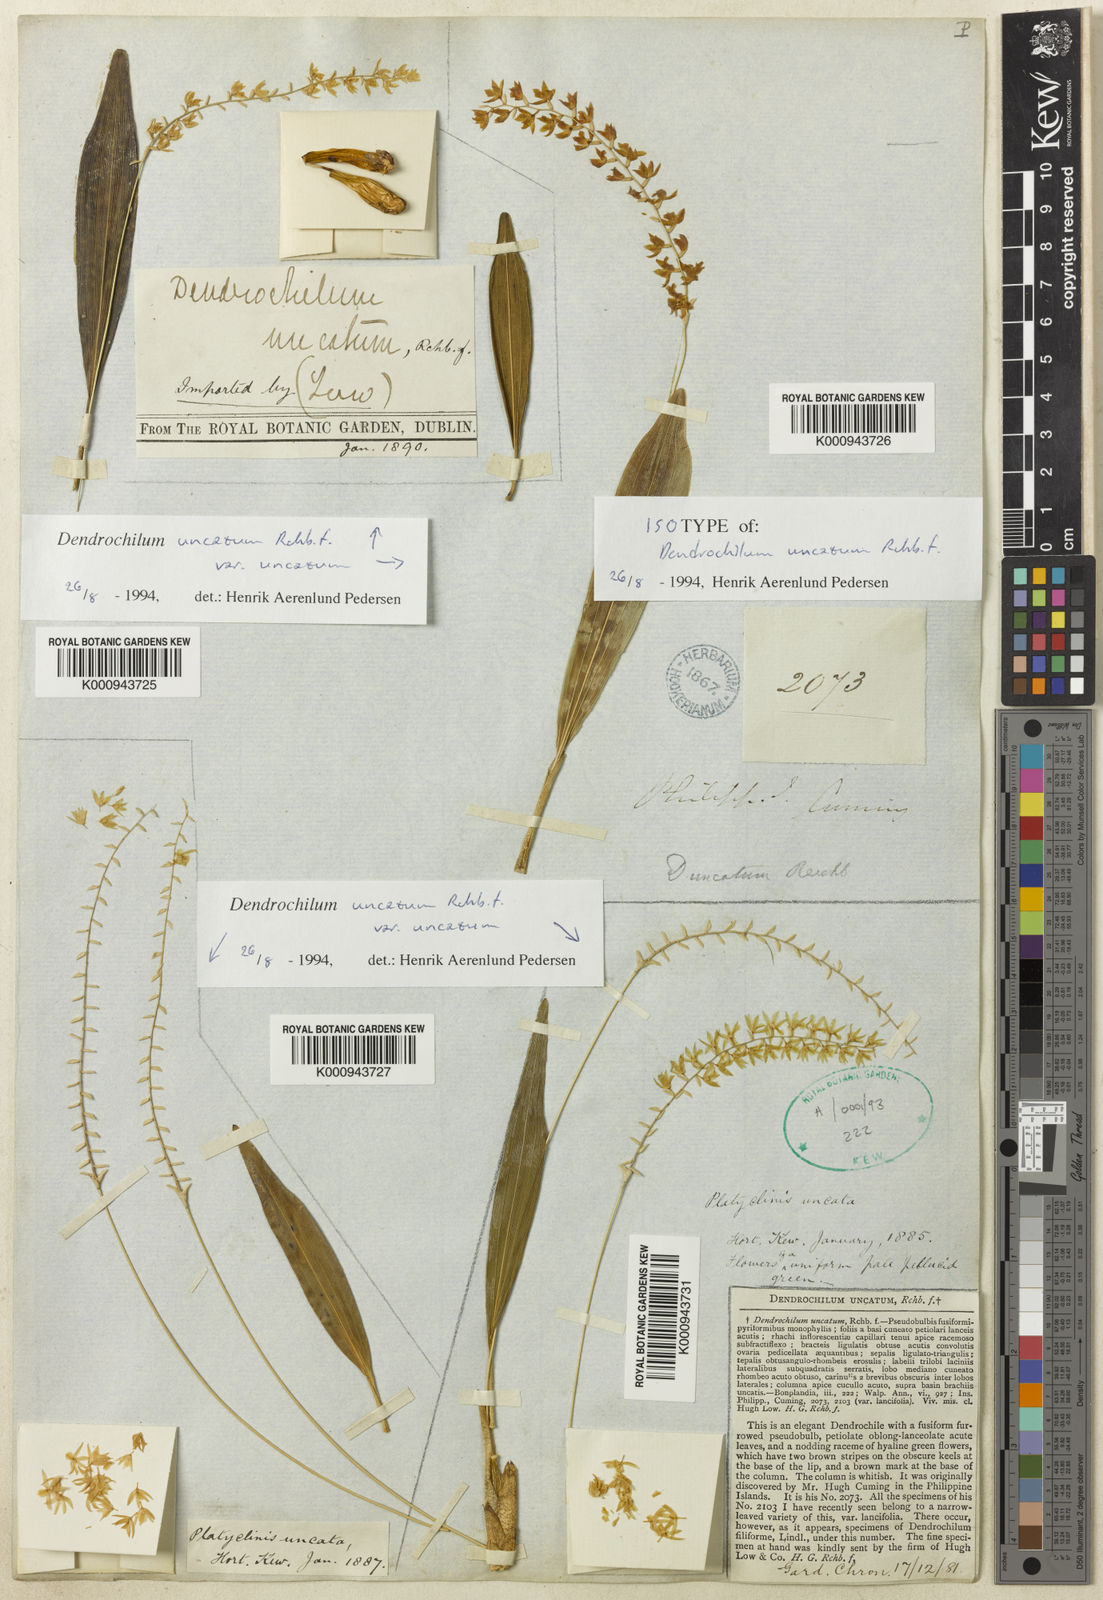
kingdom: Plantae
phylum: Tracheophyta
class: Liliopsida
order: Asparagales
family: Orchidaceae
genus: Coelogyne
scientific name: Coelogyne uncata
